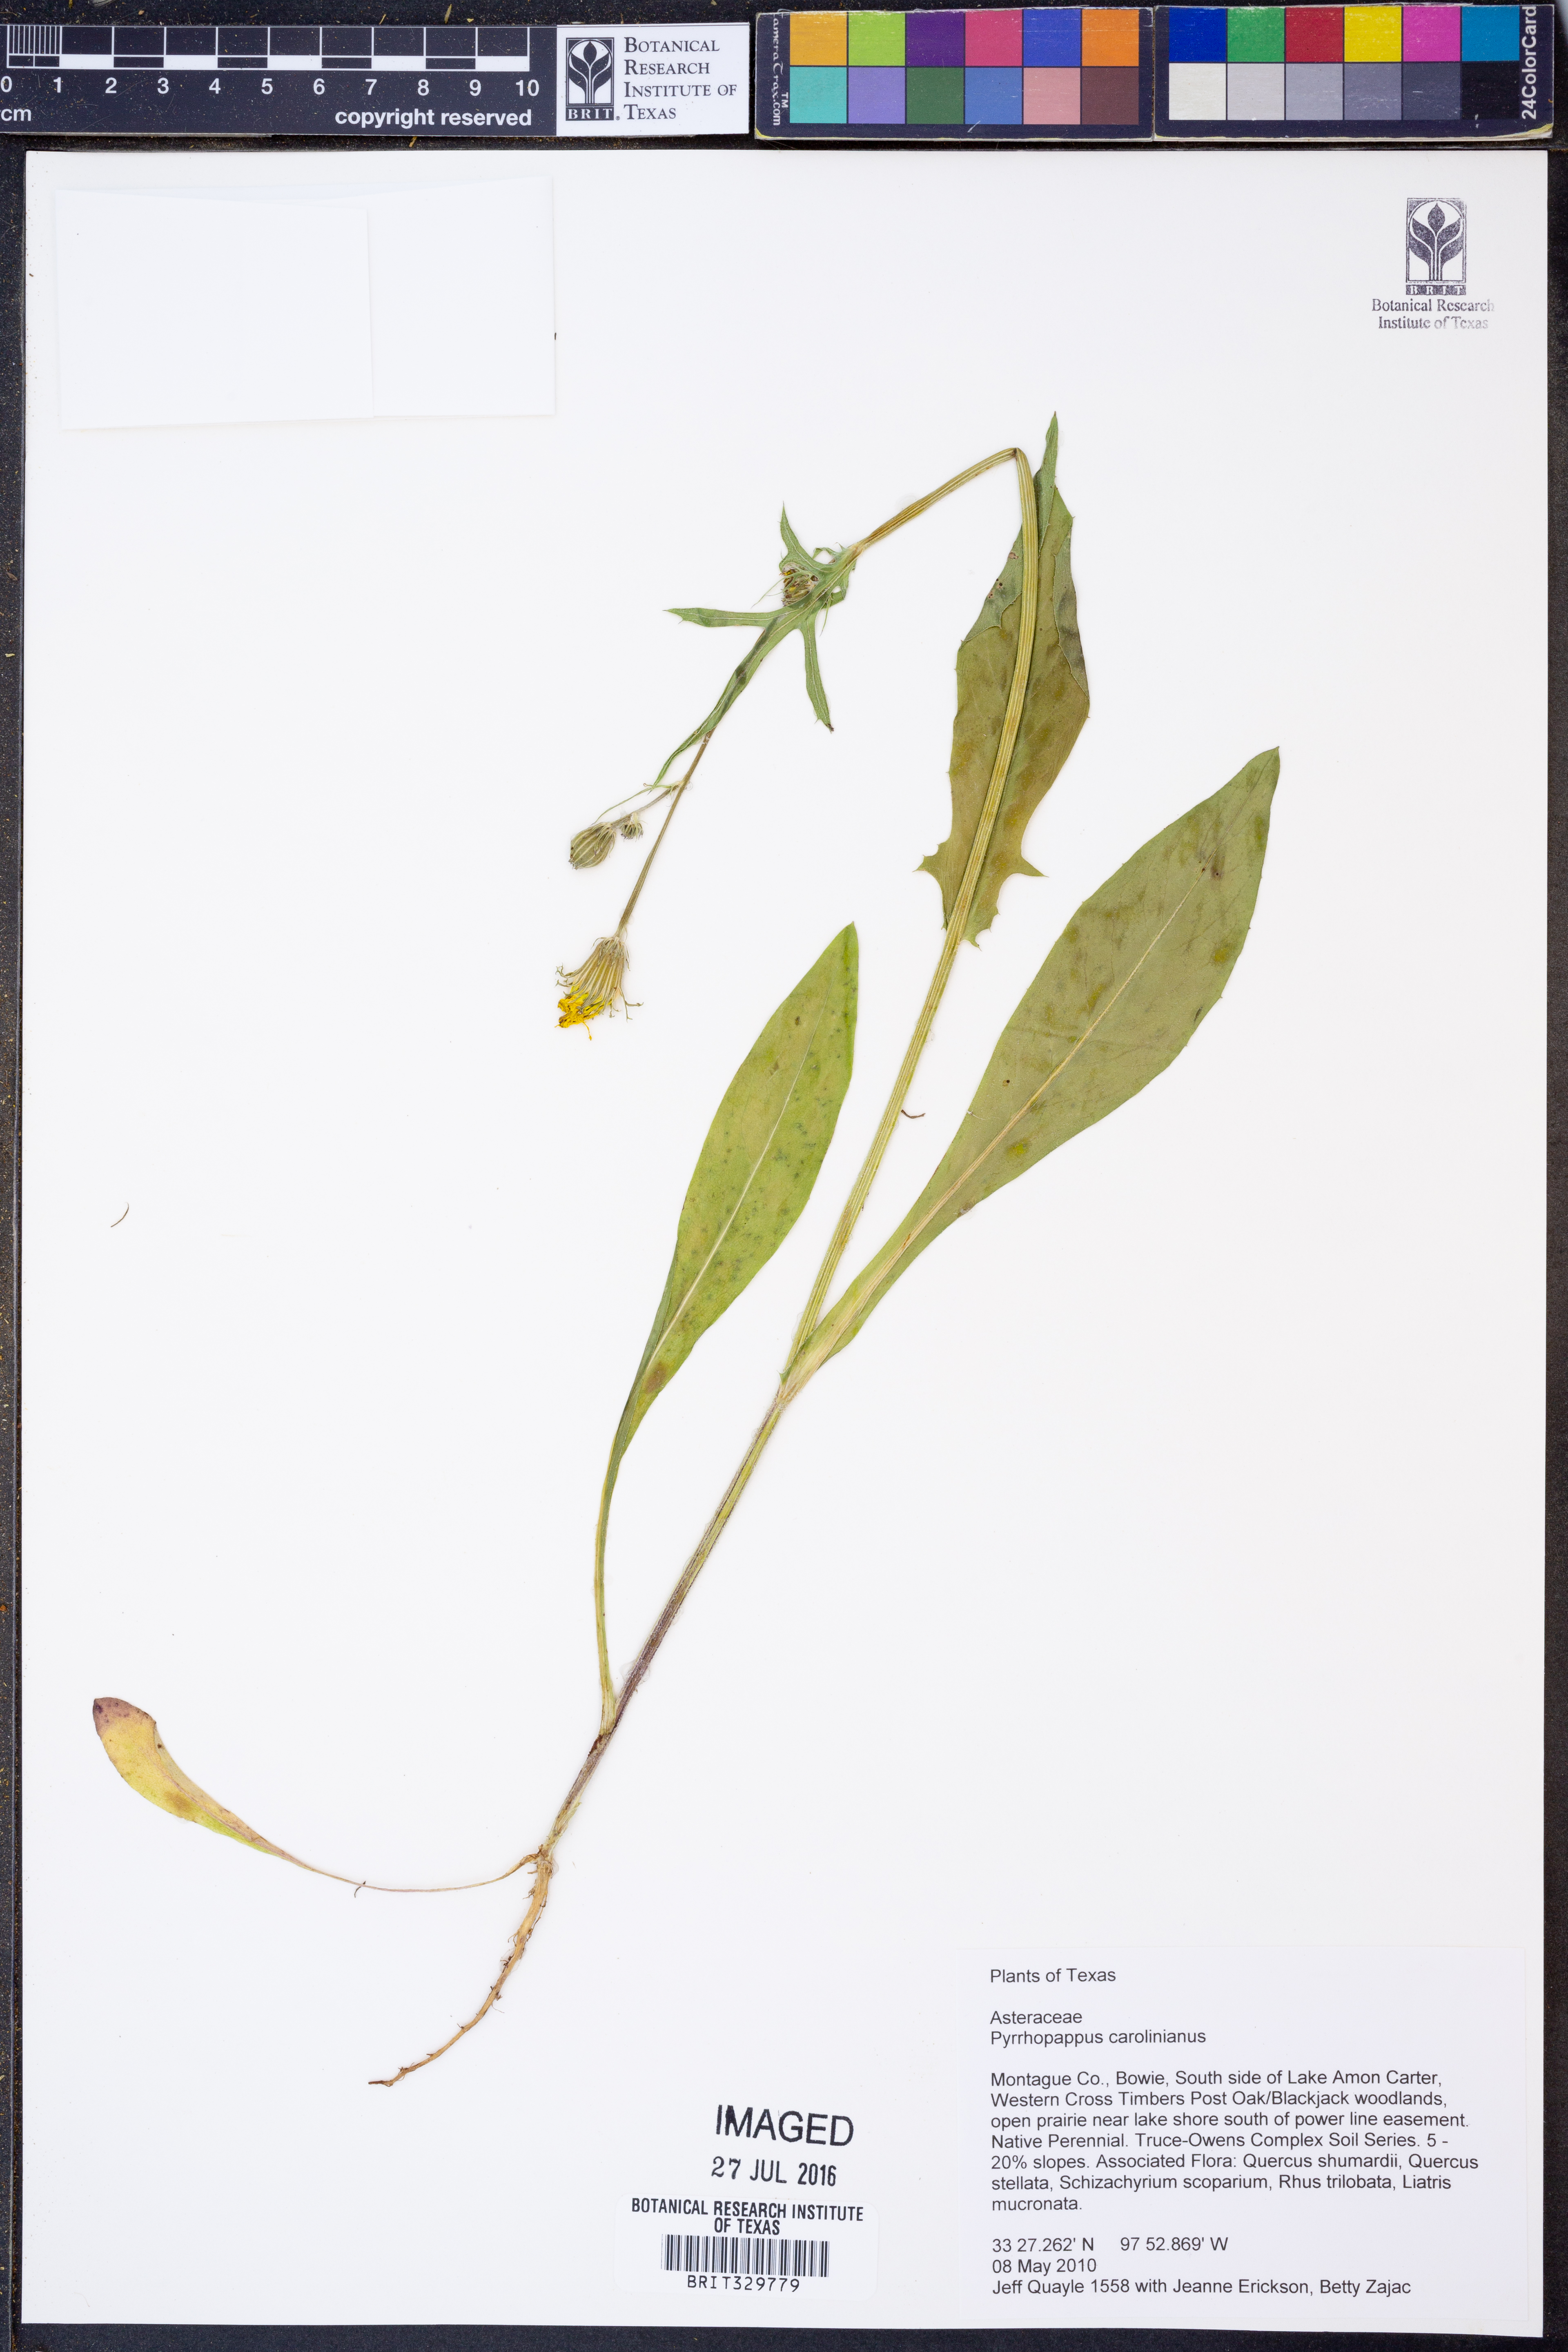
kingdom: Plantae
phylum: Tracheophyta
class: Magnoliopsida
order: Asterales
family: Asteraceae
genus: Pyrrhopappus
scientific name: Pyrrhopappus carolinianus
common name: Carolina desert-chicory
